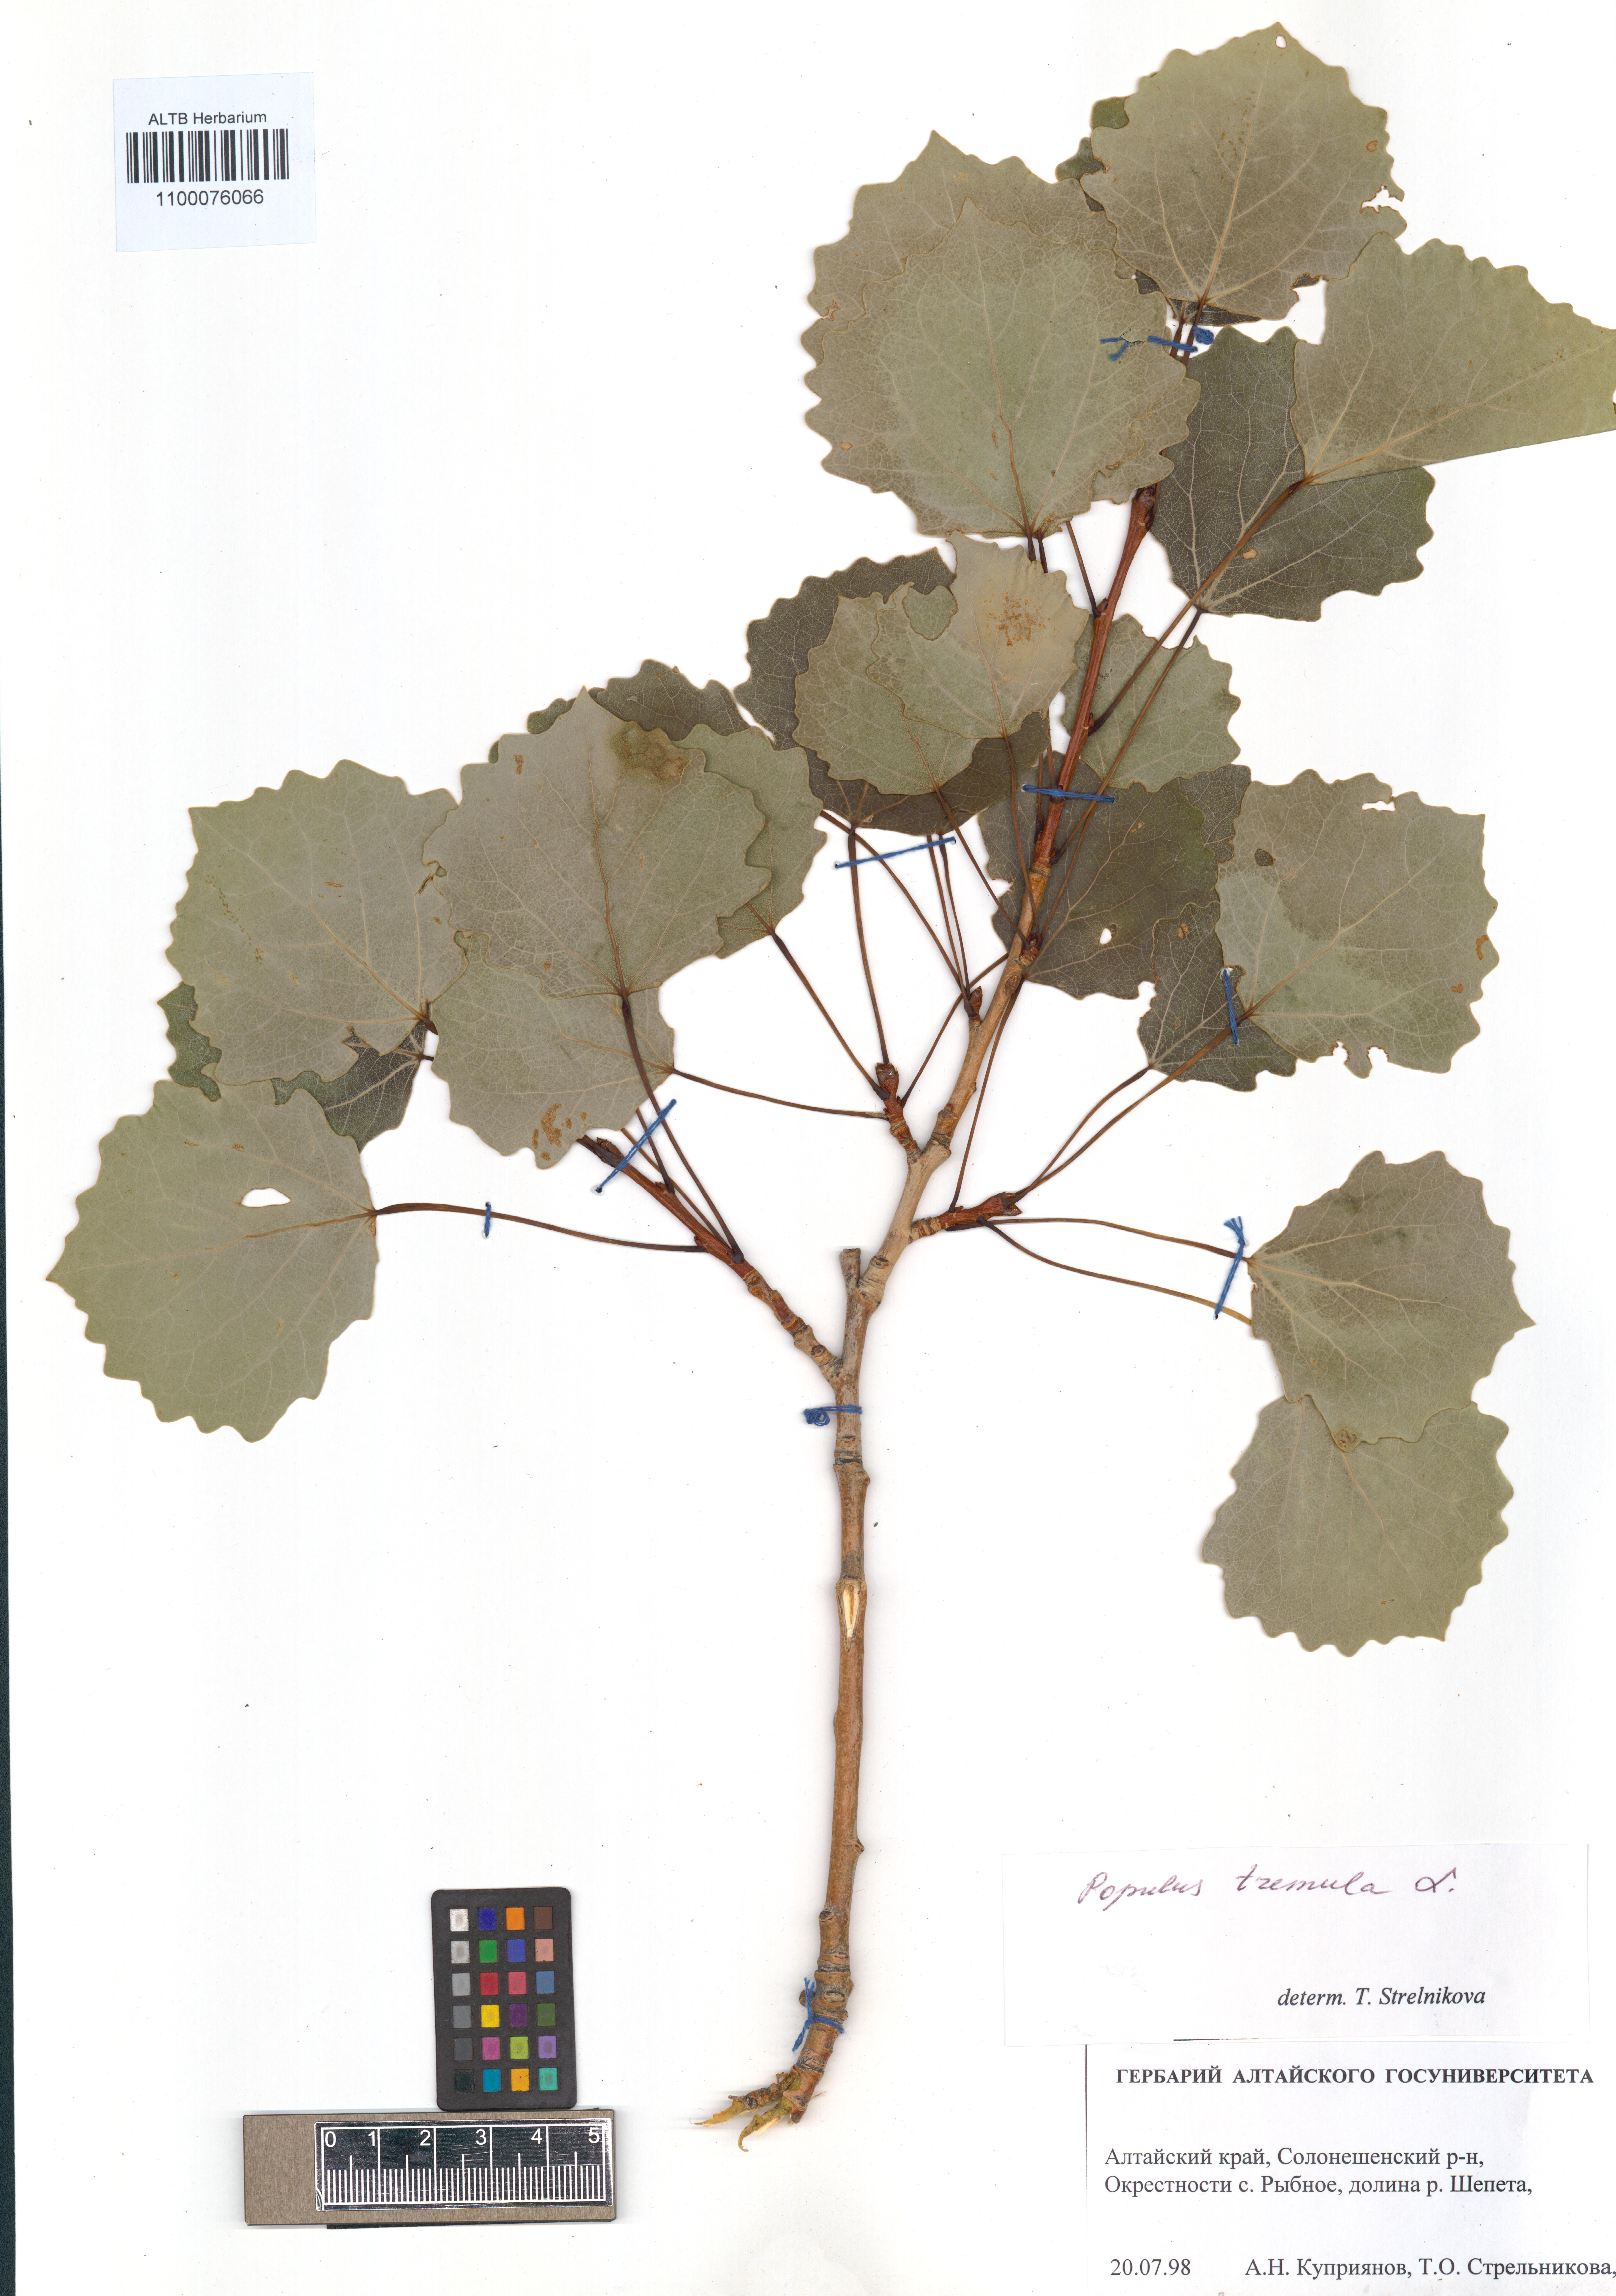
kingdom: Plantae
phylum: Tracheophyta
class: Magnoliopsida
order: Malpighiales
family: Salicaceae
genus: Populus
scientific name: Populus tremula
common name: European aspen
